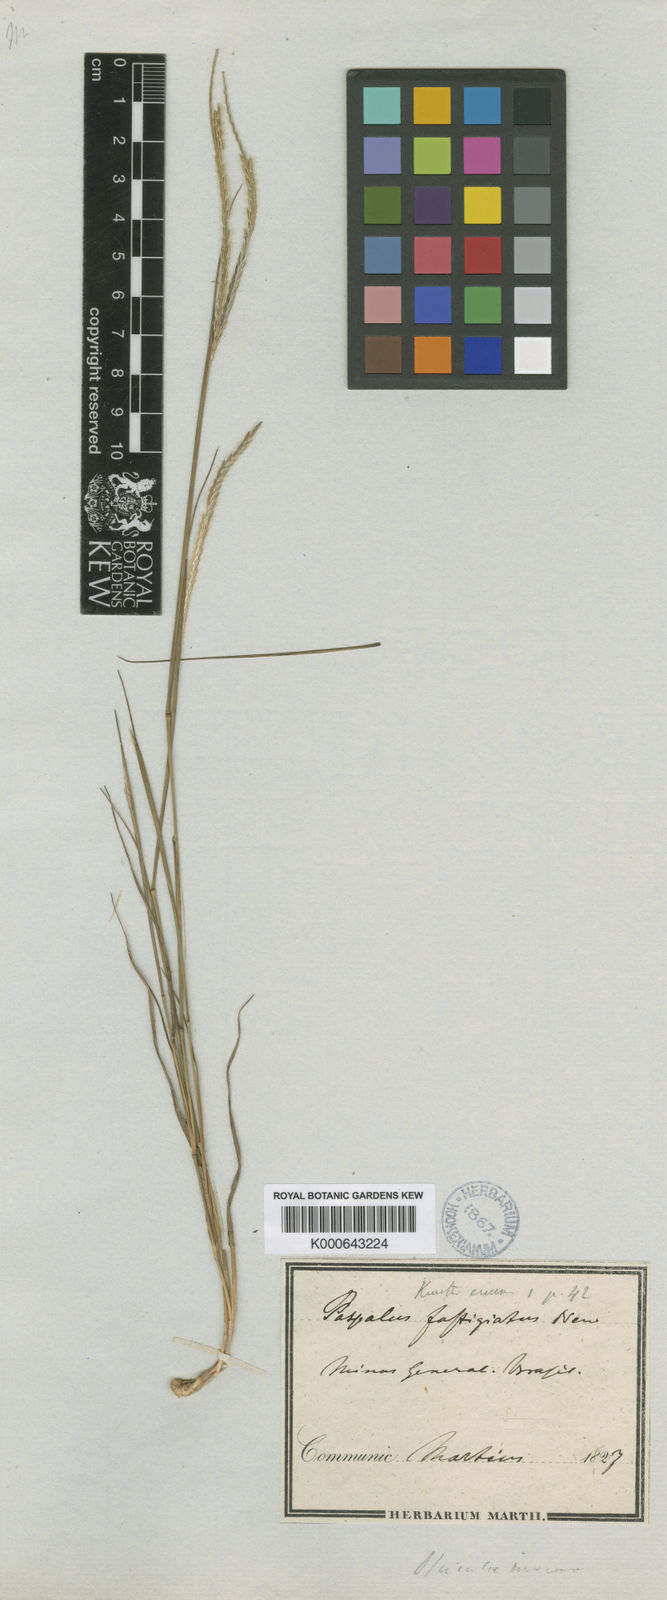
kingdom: Plantae
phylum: Tracheophyta
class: Liliopsida
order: Poales
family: Poaceae
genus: Axonopus
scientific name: Axonopus fastigiatus
